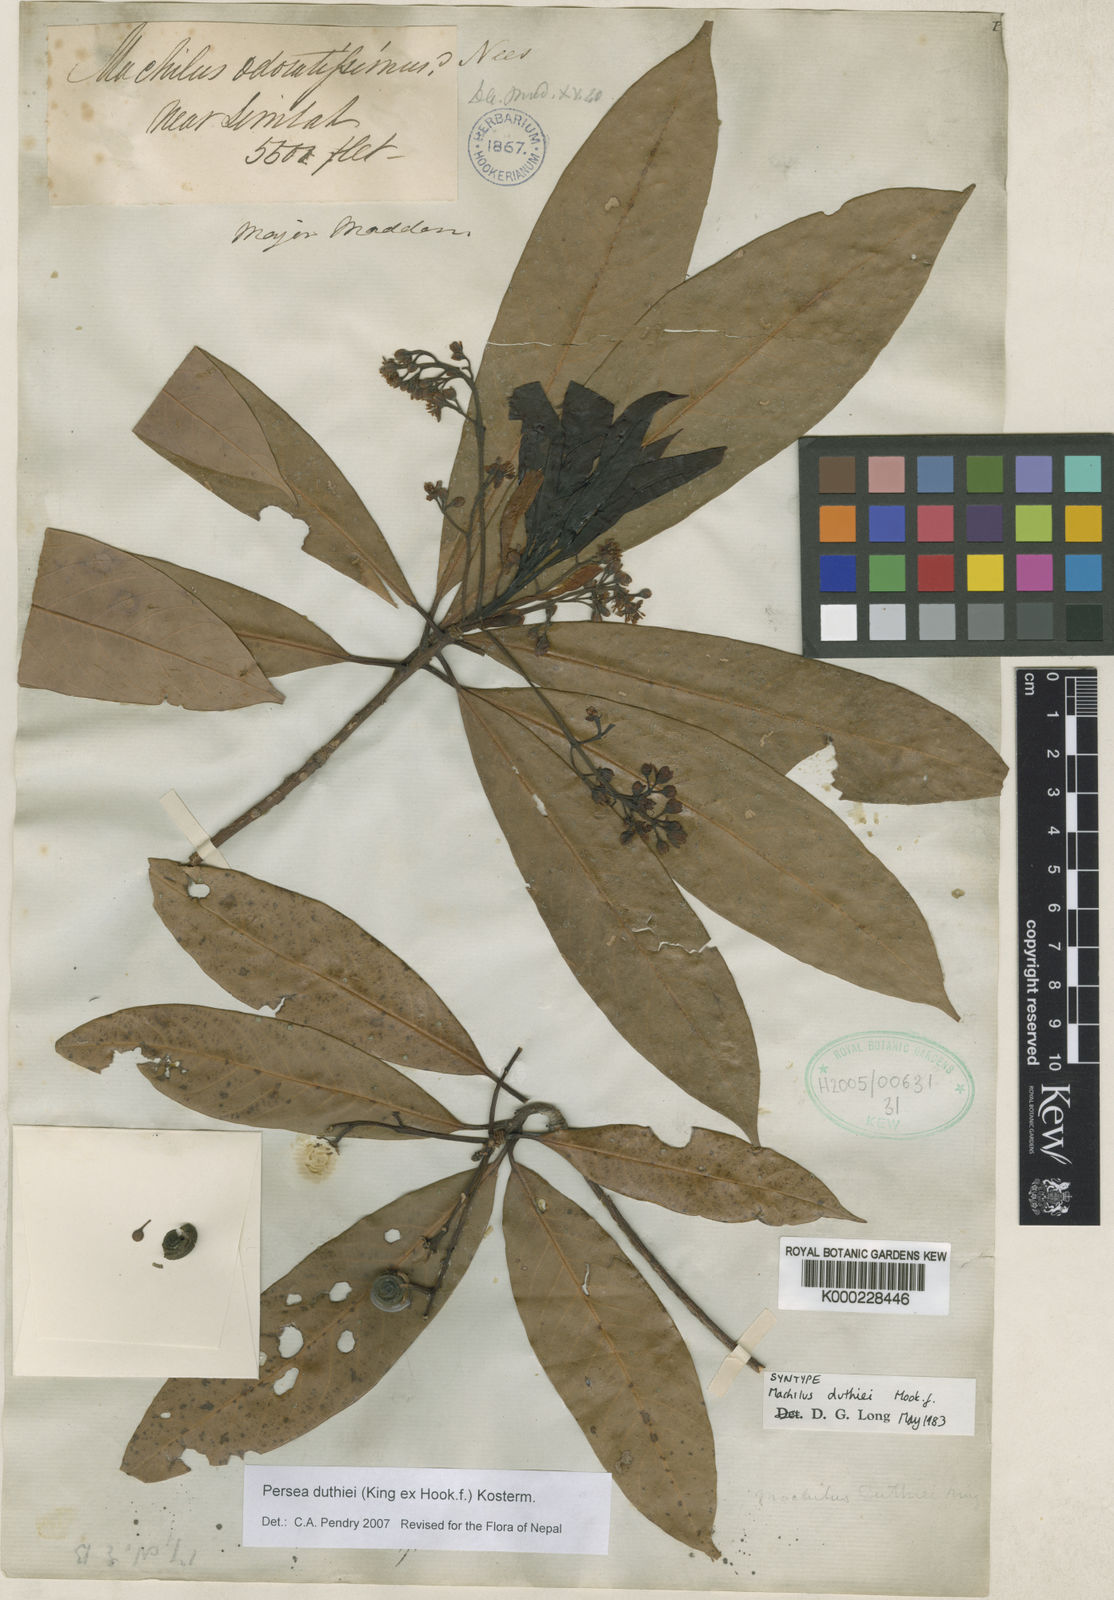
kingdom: Plantae
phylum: Tracheophyta
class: Magnoliopsida
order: Laurales
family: Lauraceae
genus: Machilus
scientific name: Machilus duthiei
